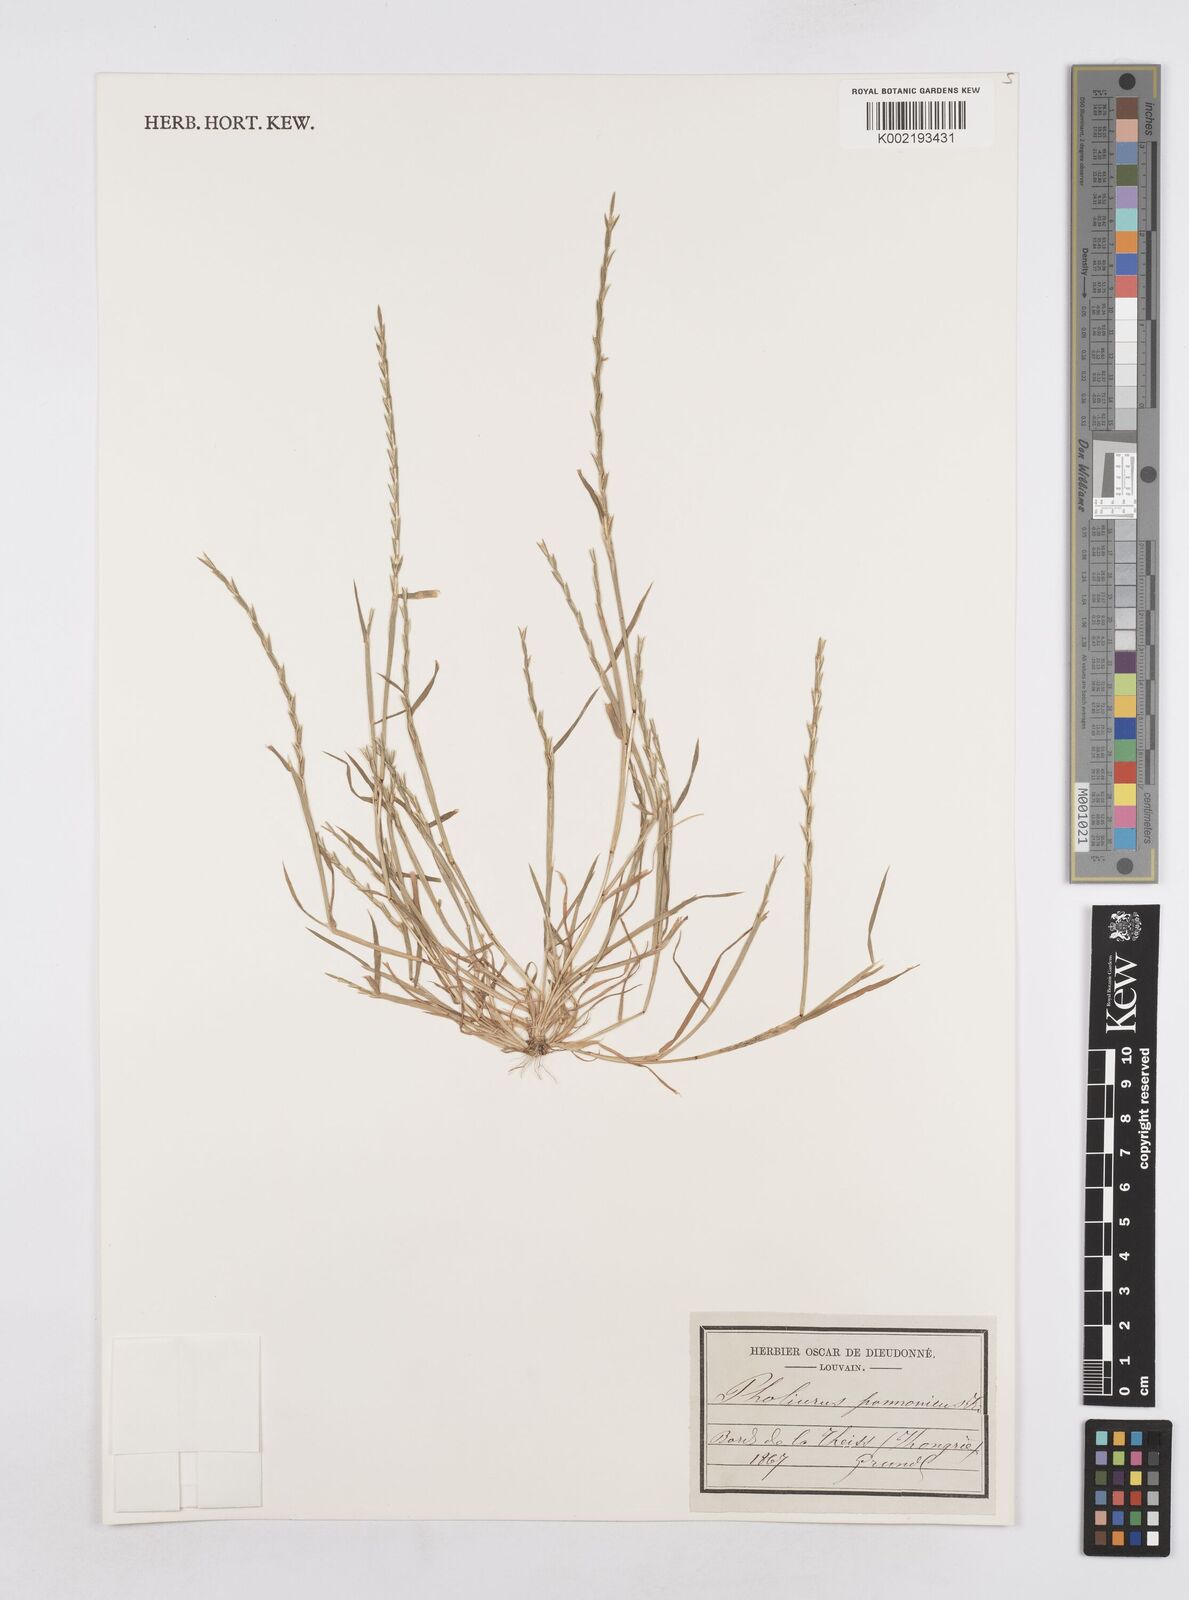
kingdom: Plantae
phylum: Tracheophyta
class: Liliopsida
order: Poales
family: Poaceae
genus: Pholiurus
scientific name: Pholiurus pannonicus
